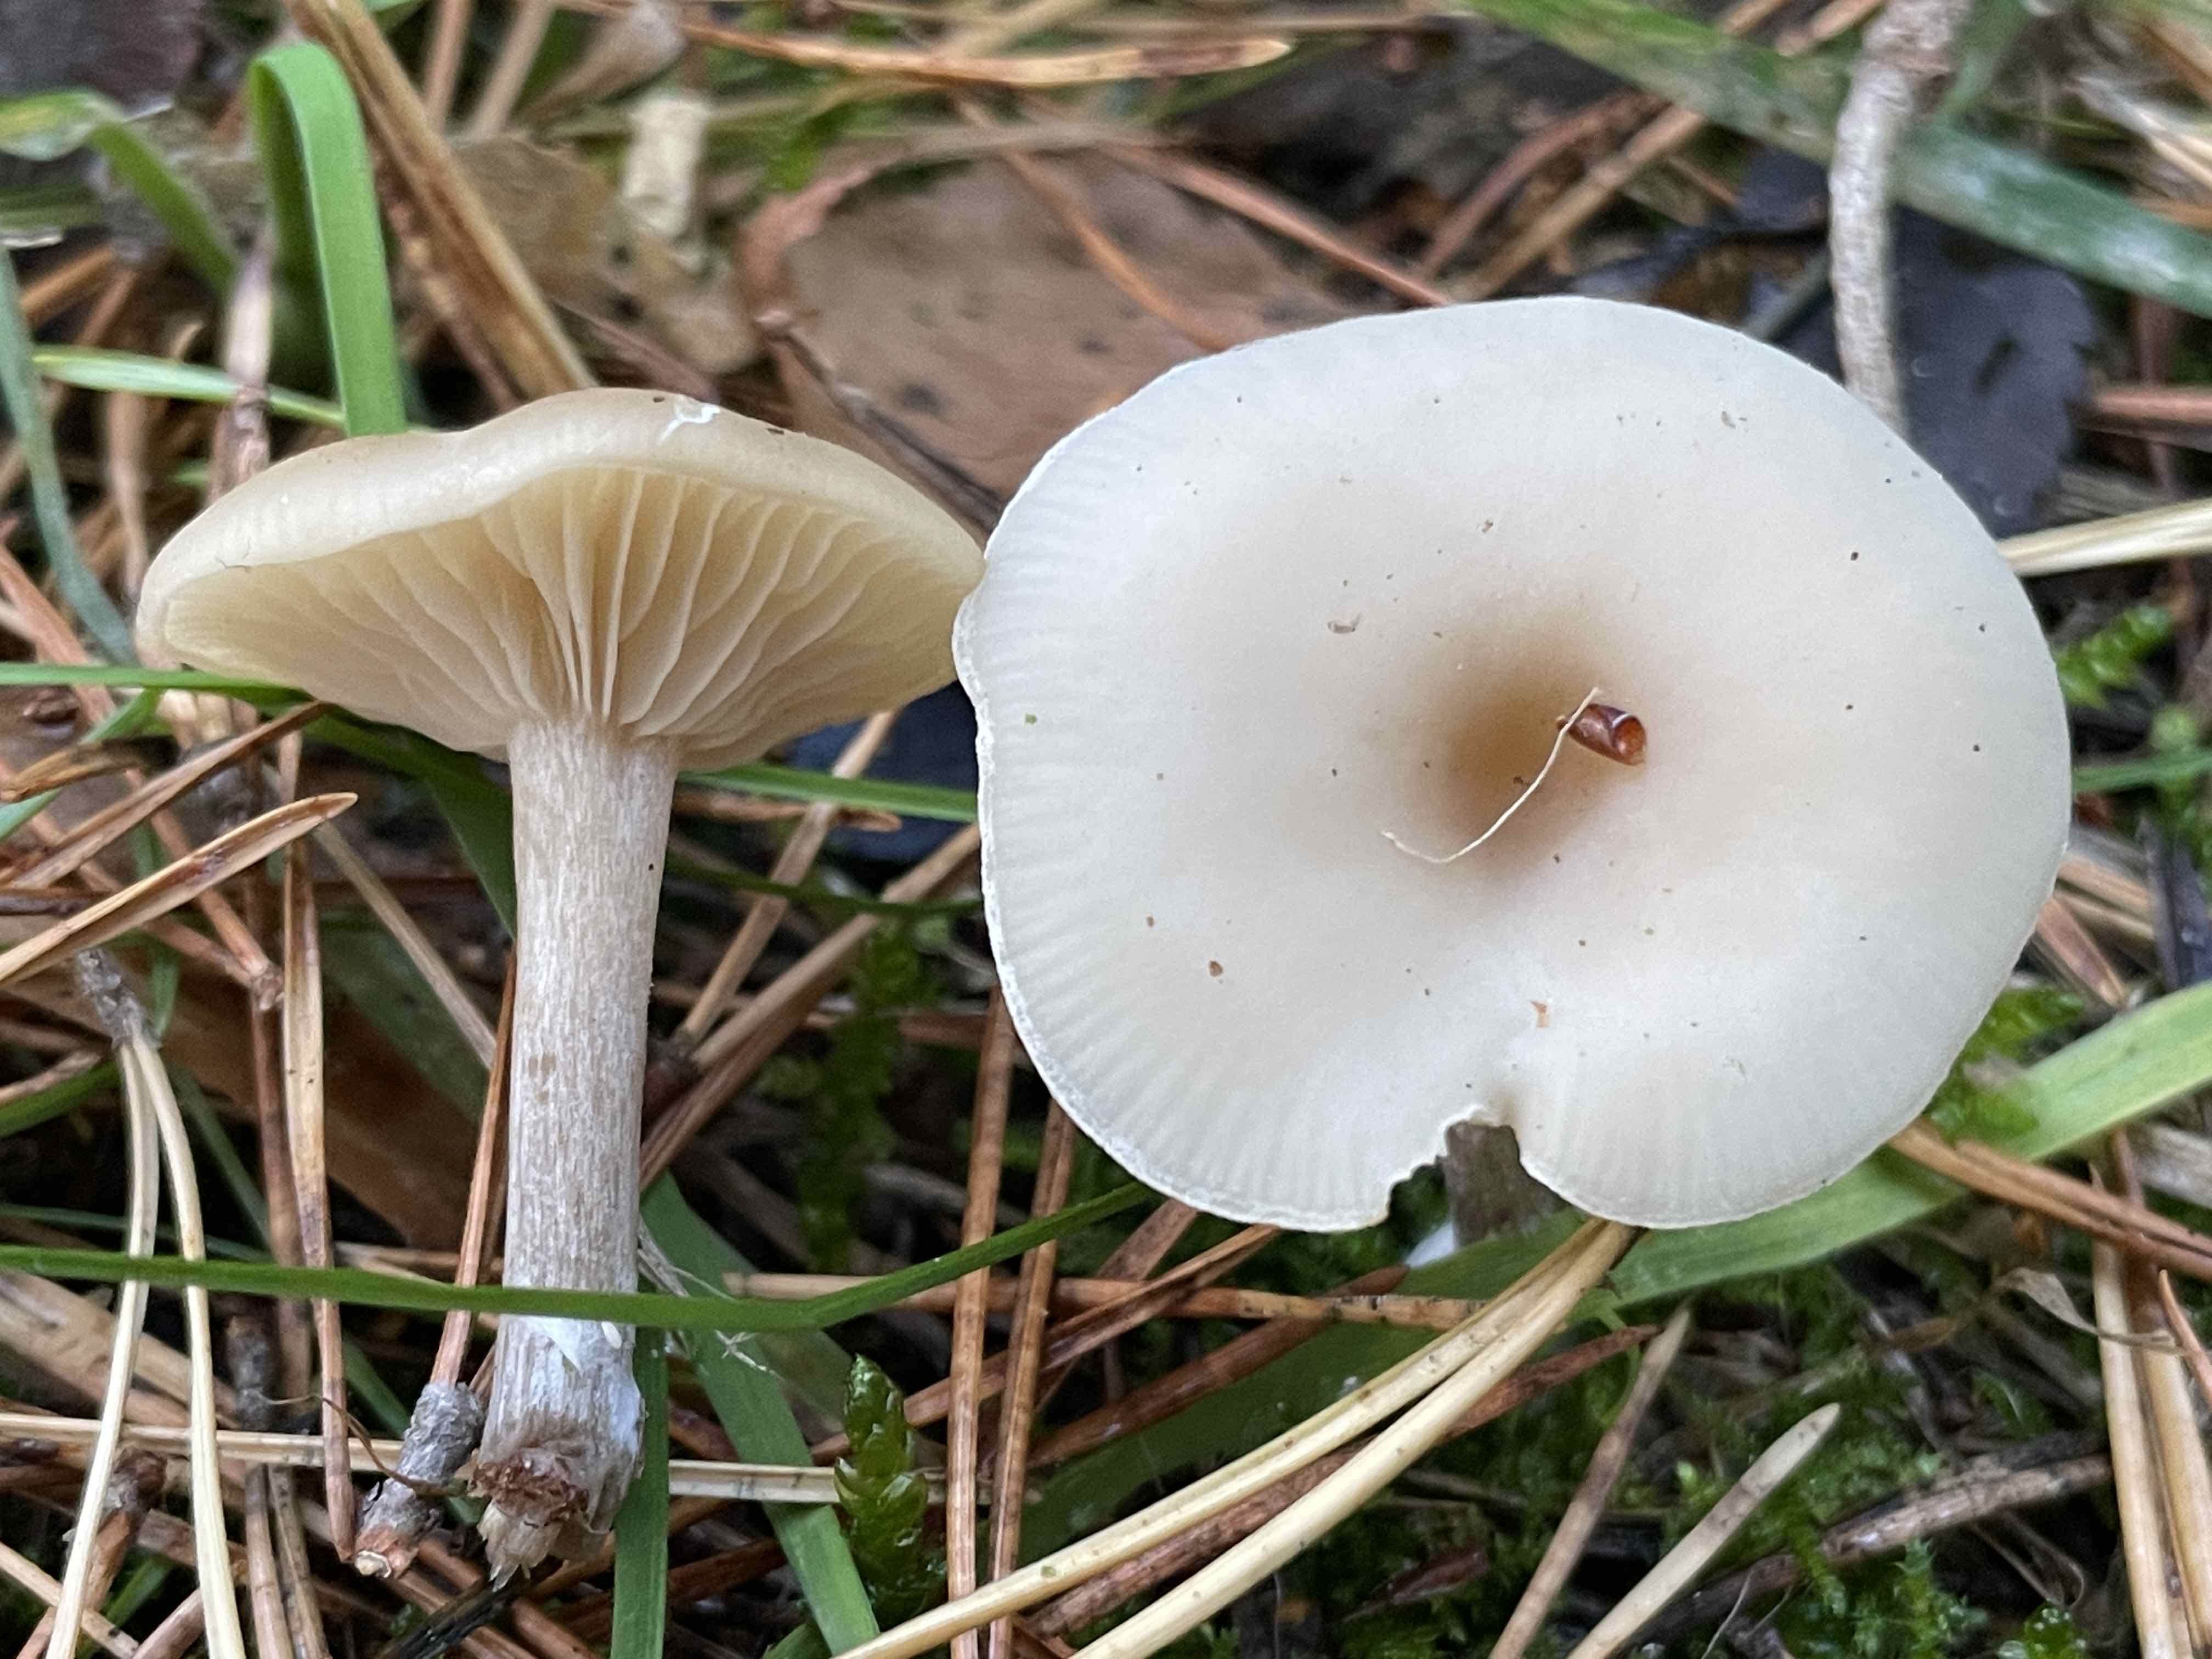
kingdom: Fungi
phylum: Basidiomycota
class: Agaricomycetes
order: Agaricales
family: Tricholomataceae
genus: Clitocybe
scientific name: Clitocybe metachroa
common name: grå tragthat
